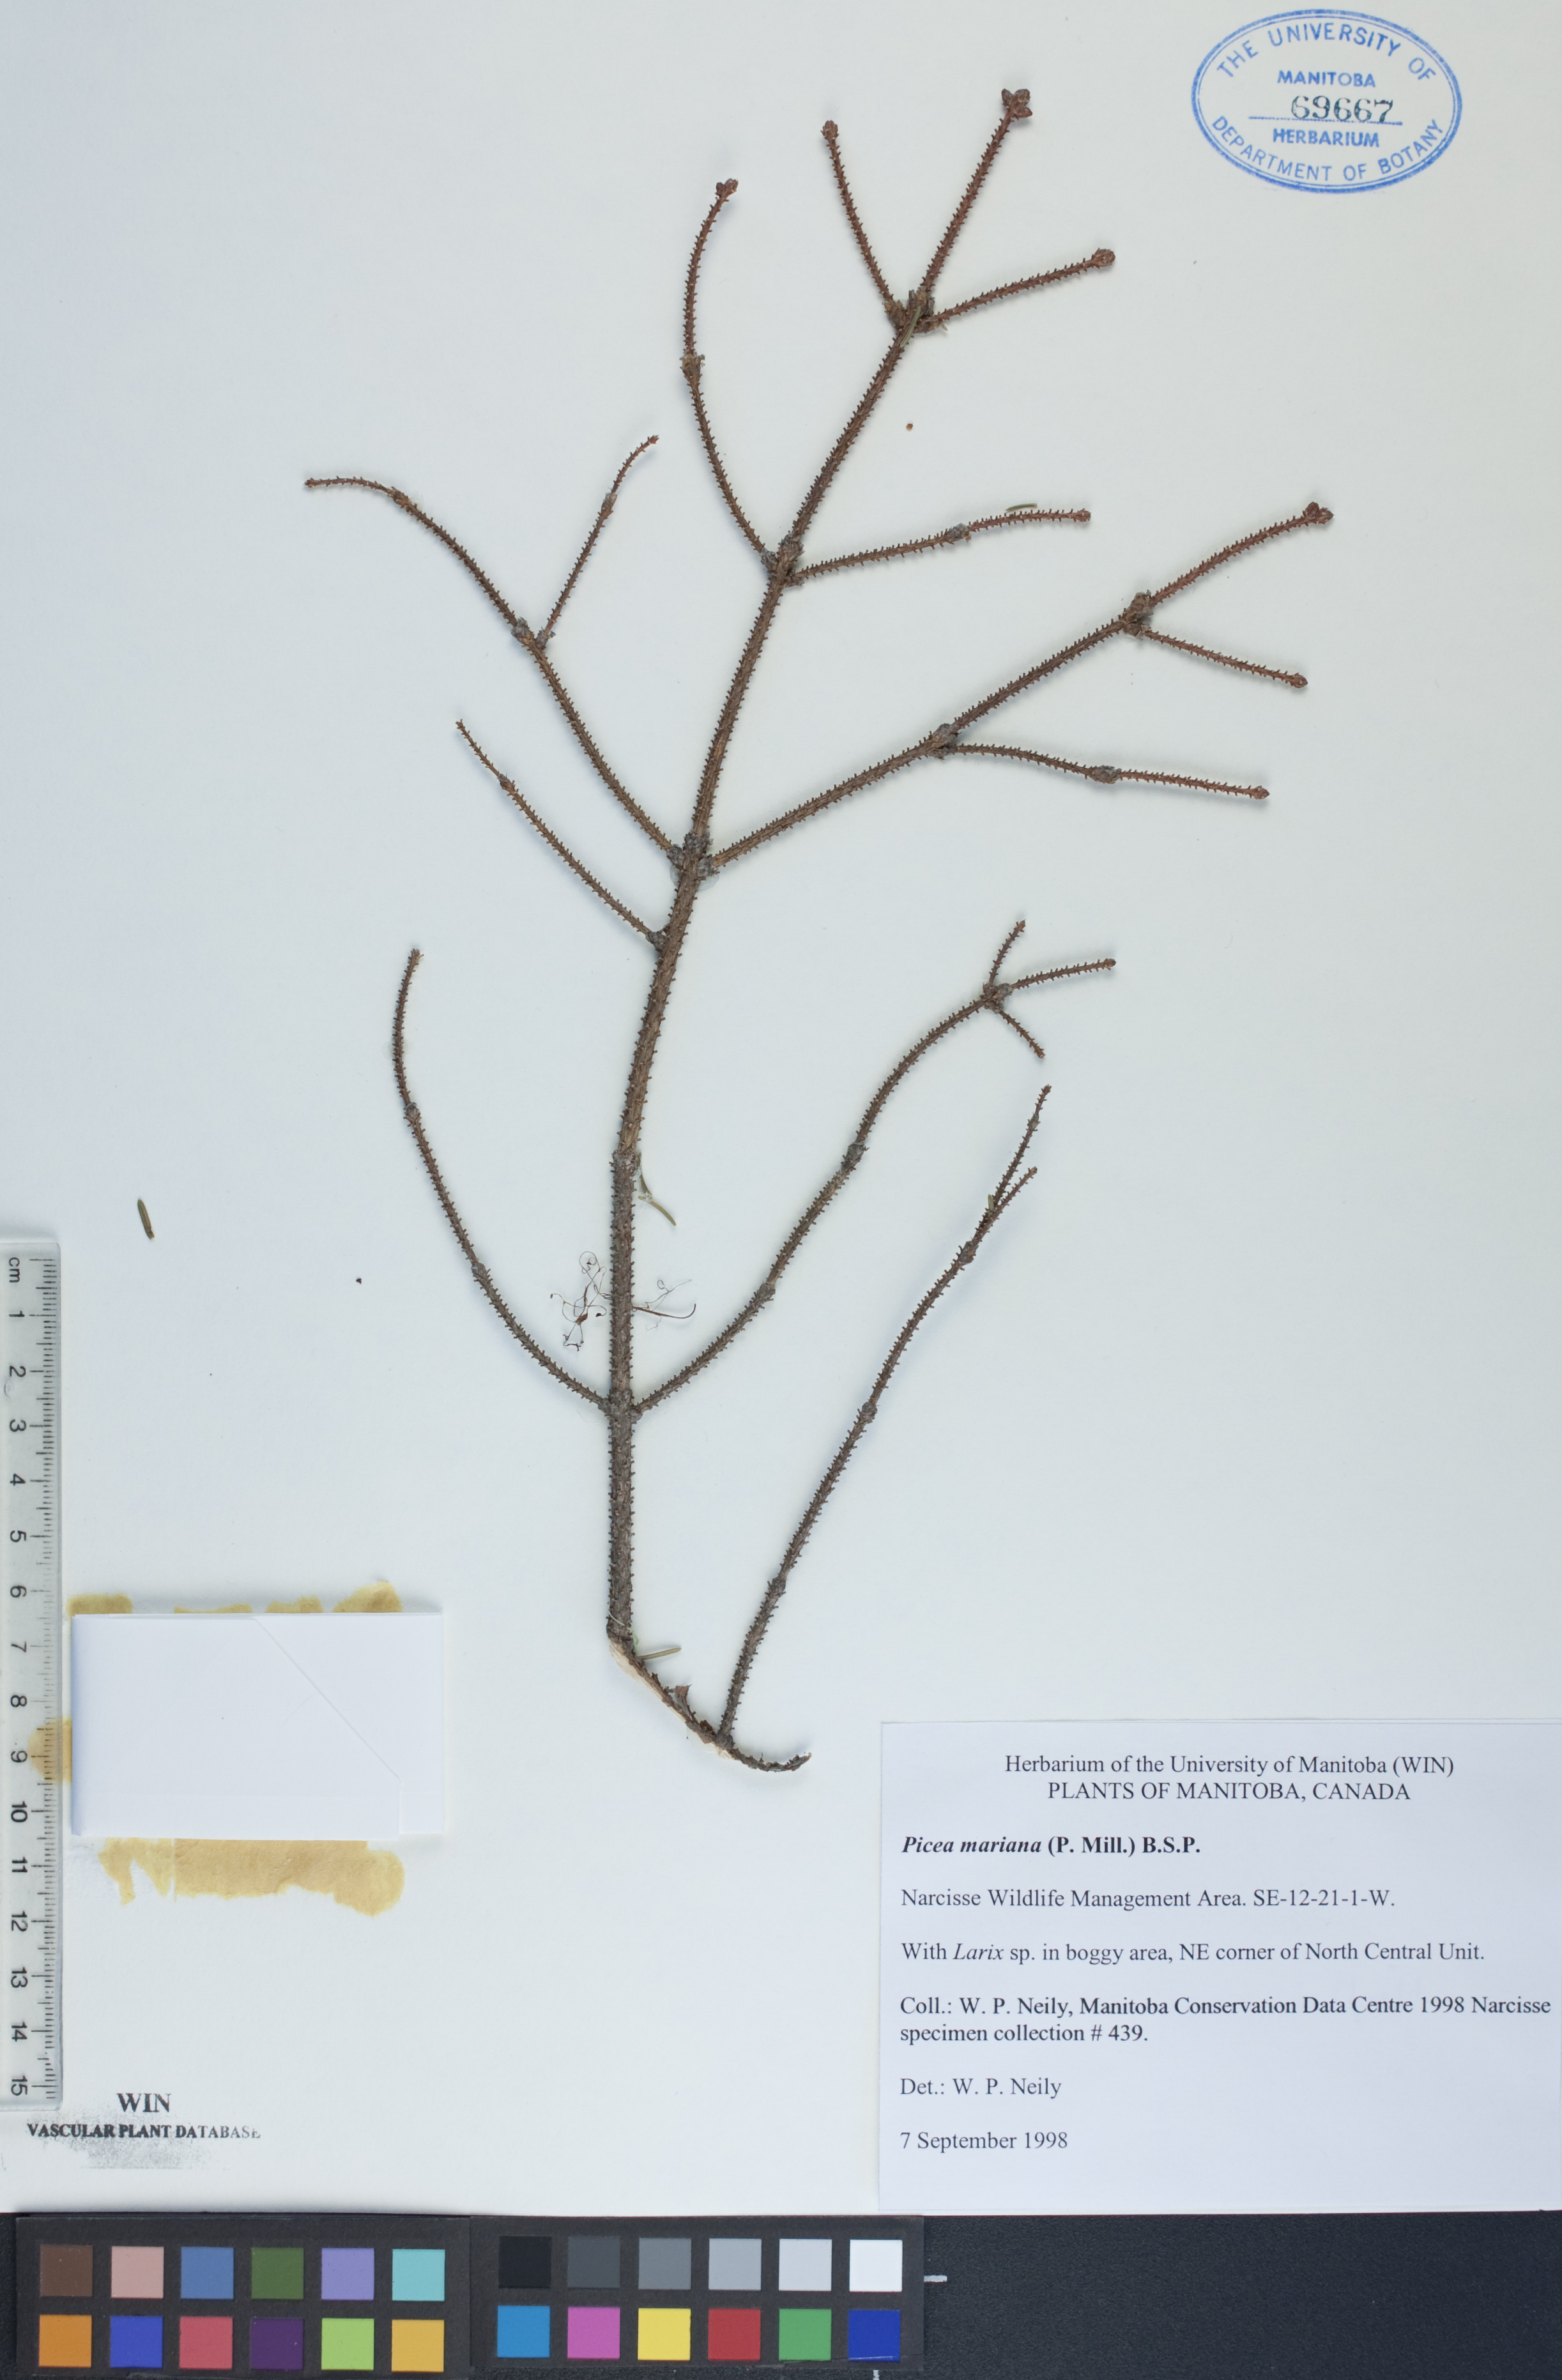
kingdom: Plantae
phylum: Tracheophyta
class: Pinopsida
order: Pinales
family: Pinaceae
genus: Picea
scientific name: Picea mariana
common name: Black spruce
